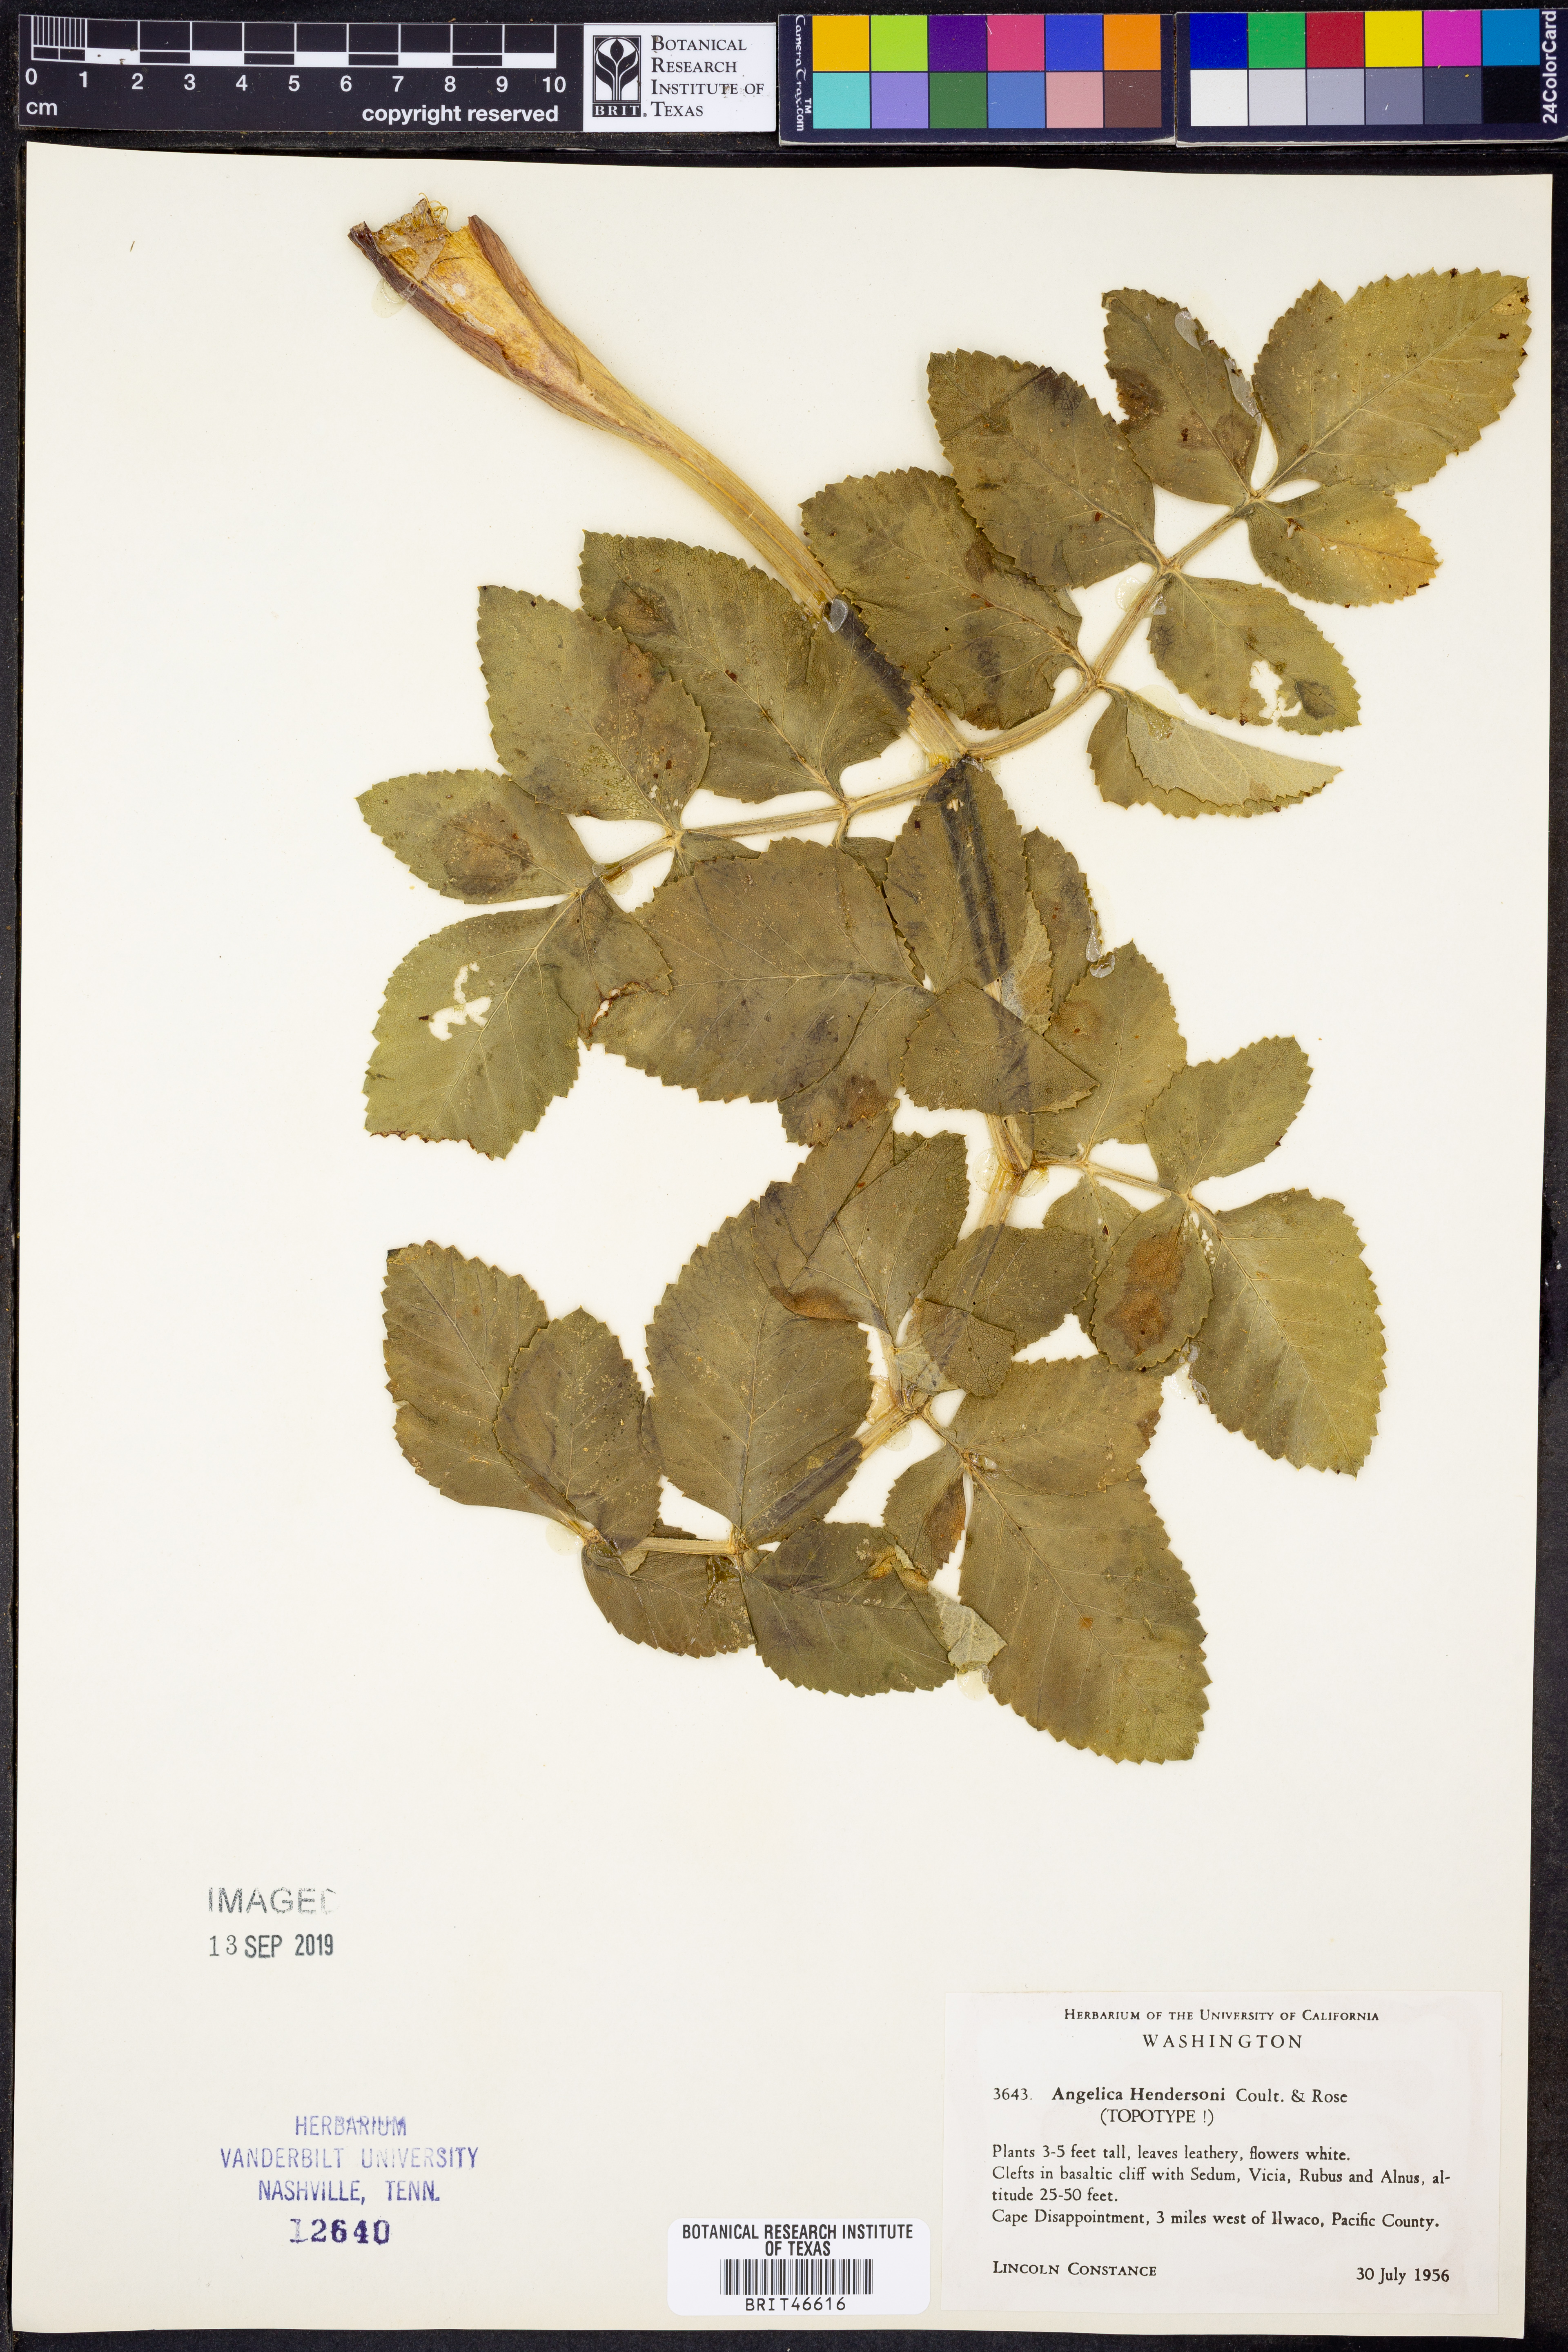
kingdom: Plantae
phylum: Tracheophyta
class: Magnoliopsida
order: Apiales
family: Apiaceae
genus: Angelica
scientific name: Angelica hendersonii
